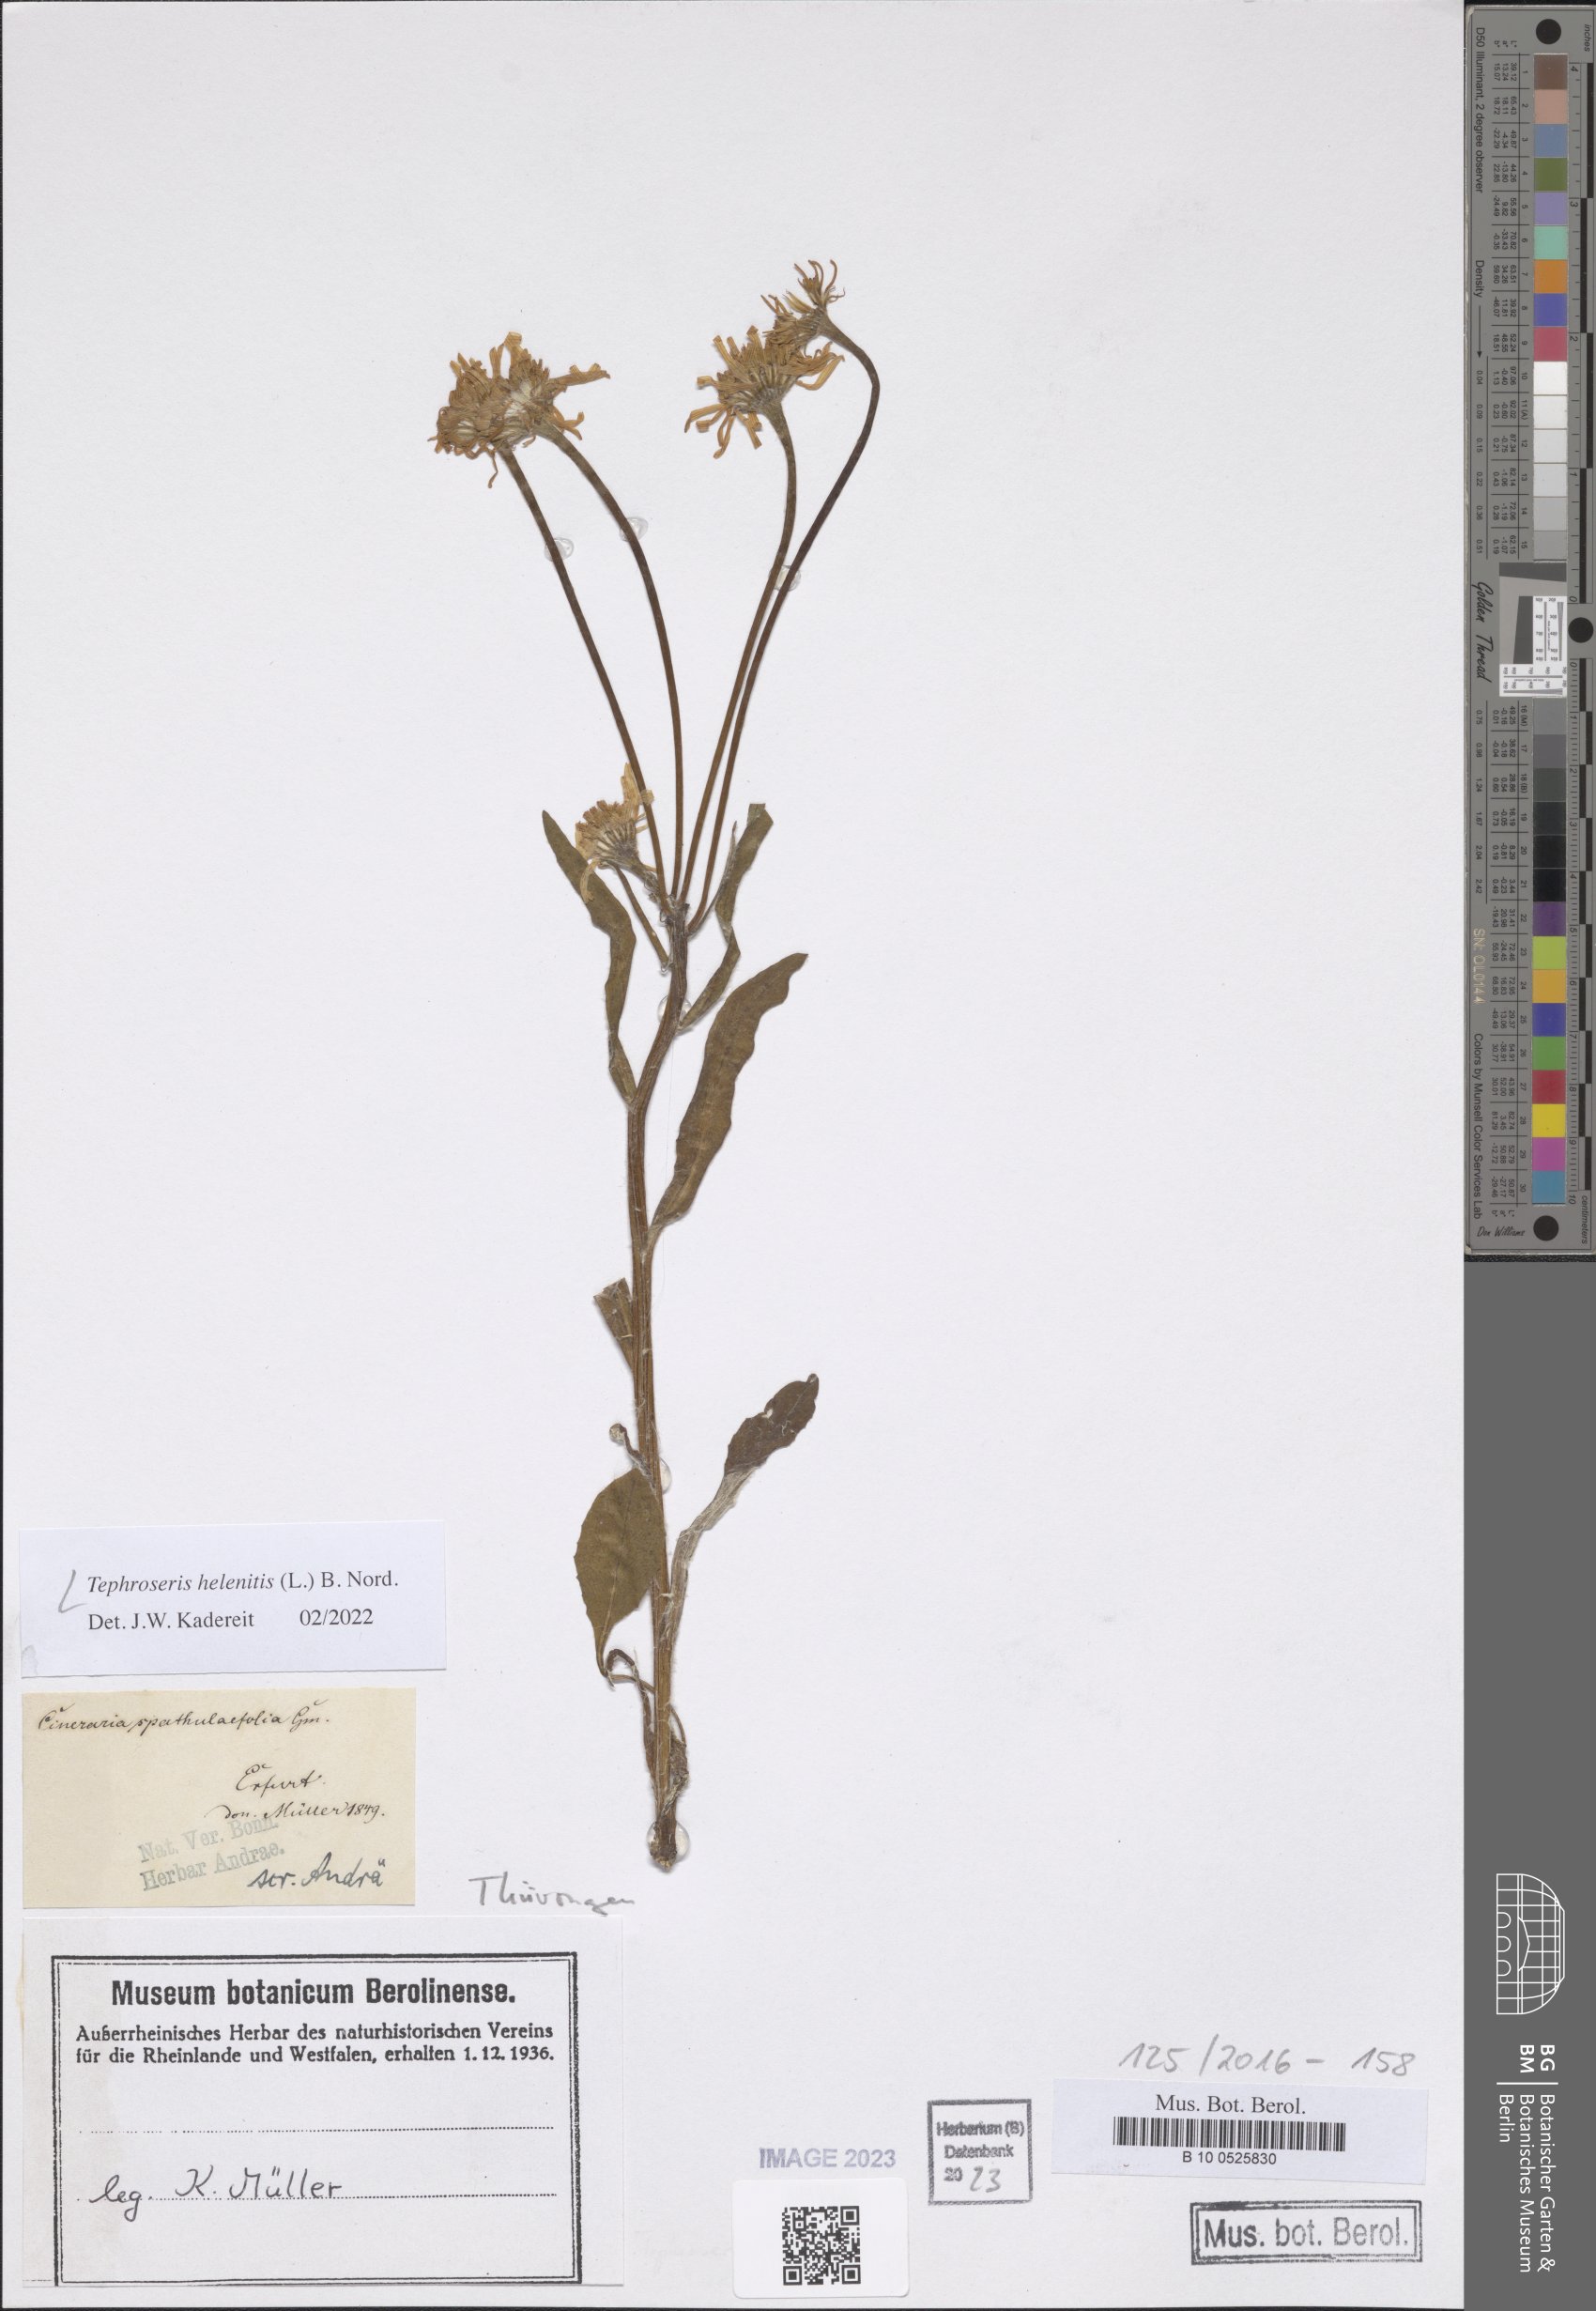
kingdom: Plantae
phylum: Tracheophyta
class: Magnoliopsida
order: Asterales
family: Asteraceae
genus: Tephroseris
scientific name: Tephroseris helenitis
